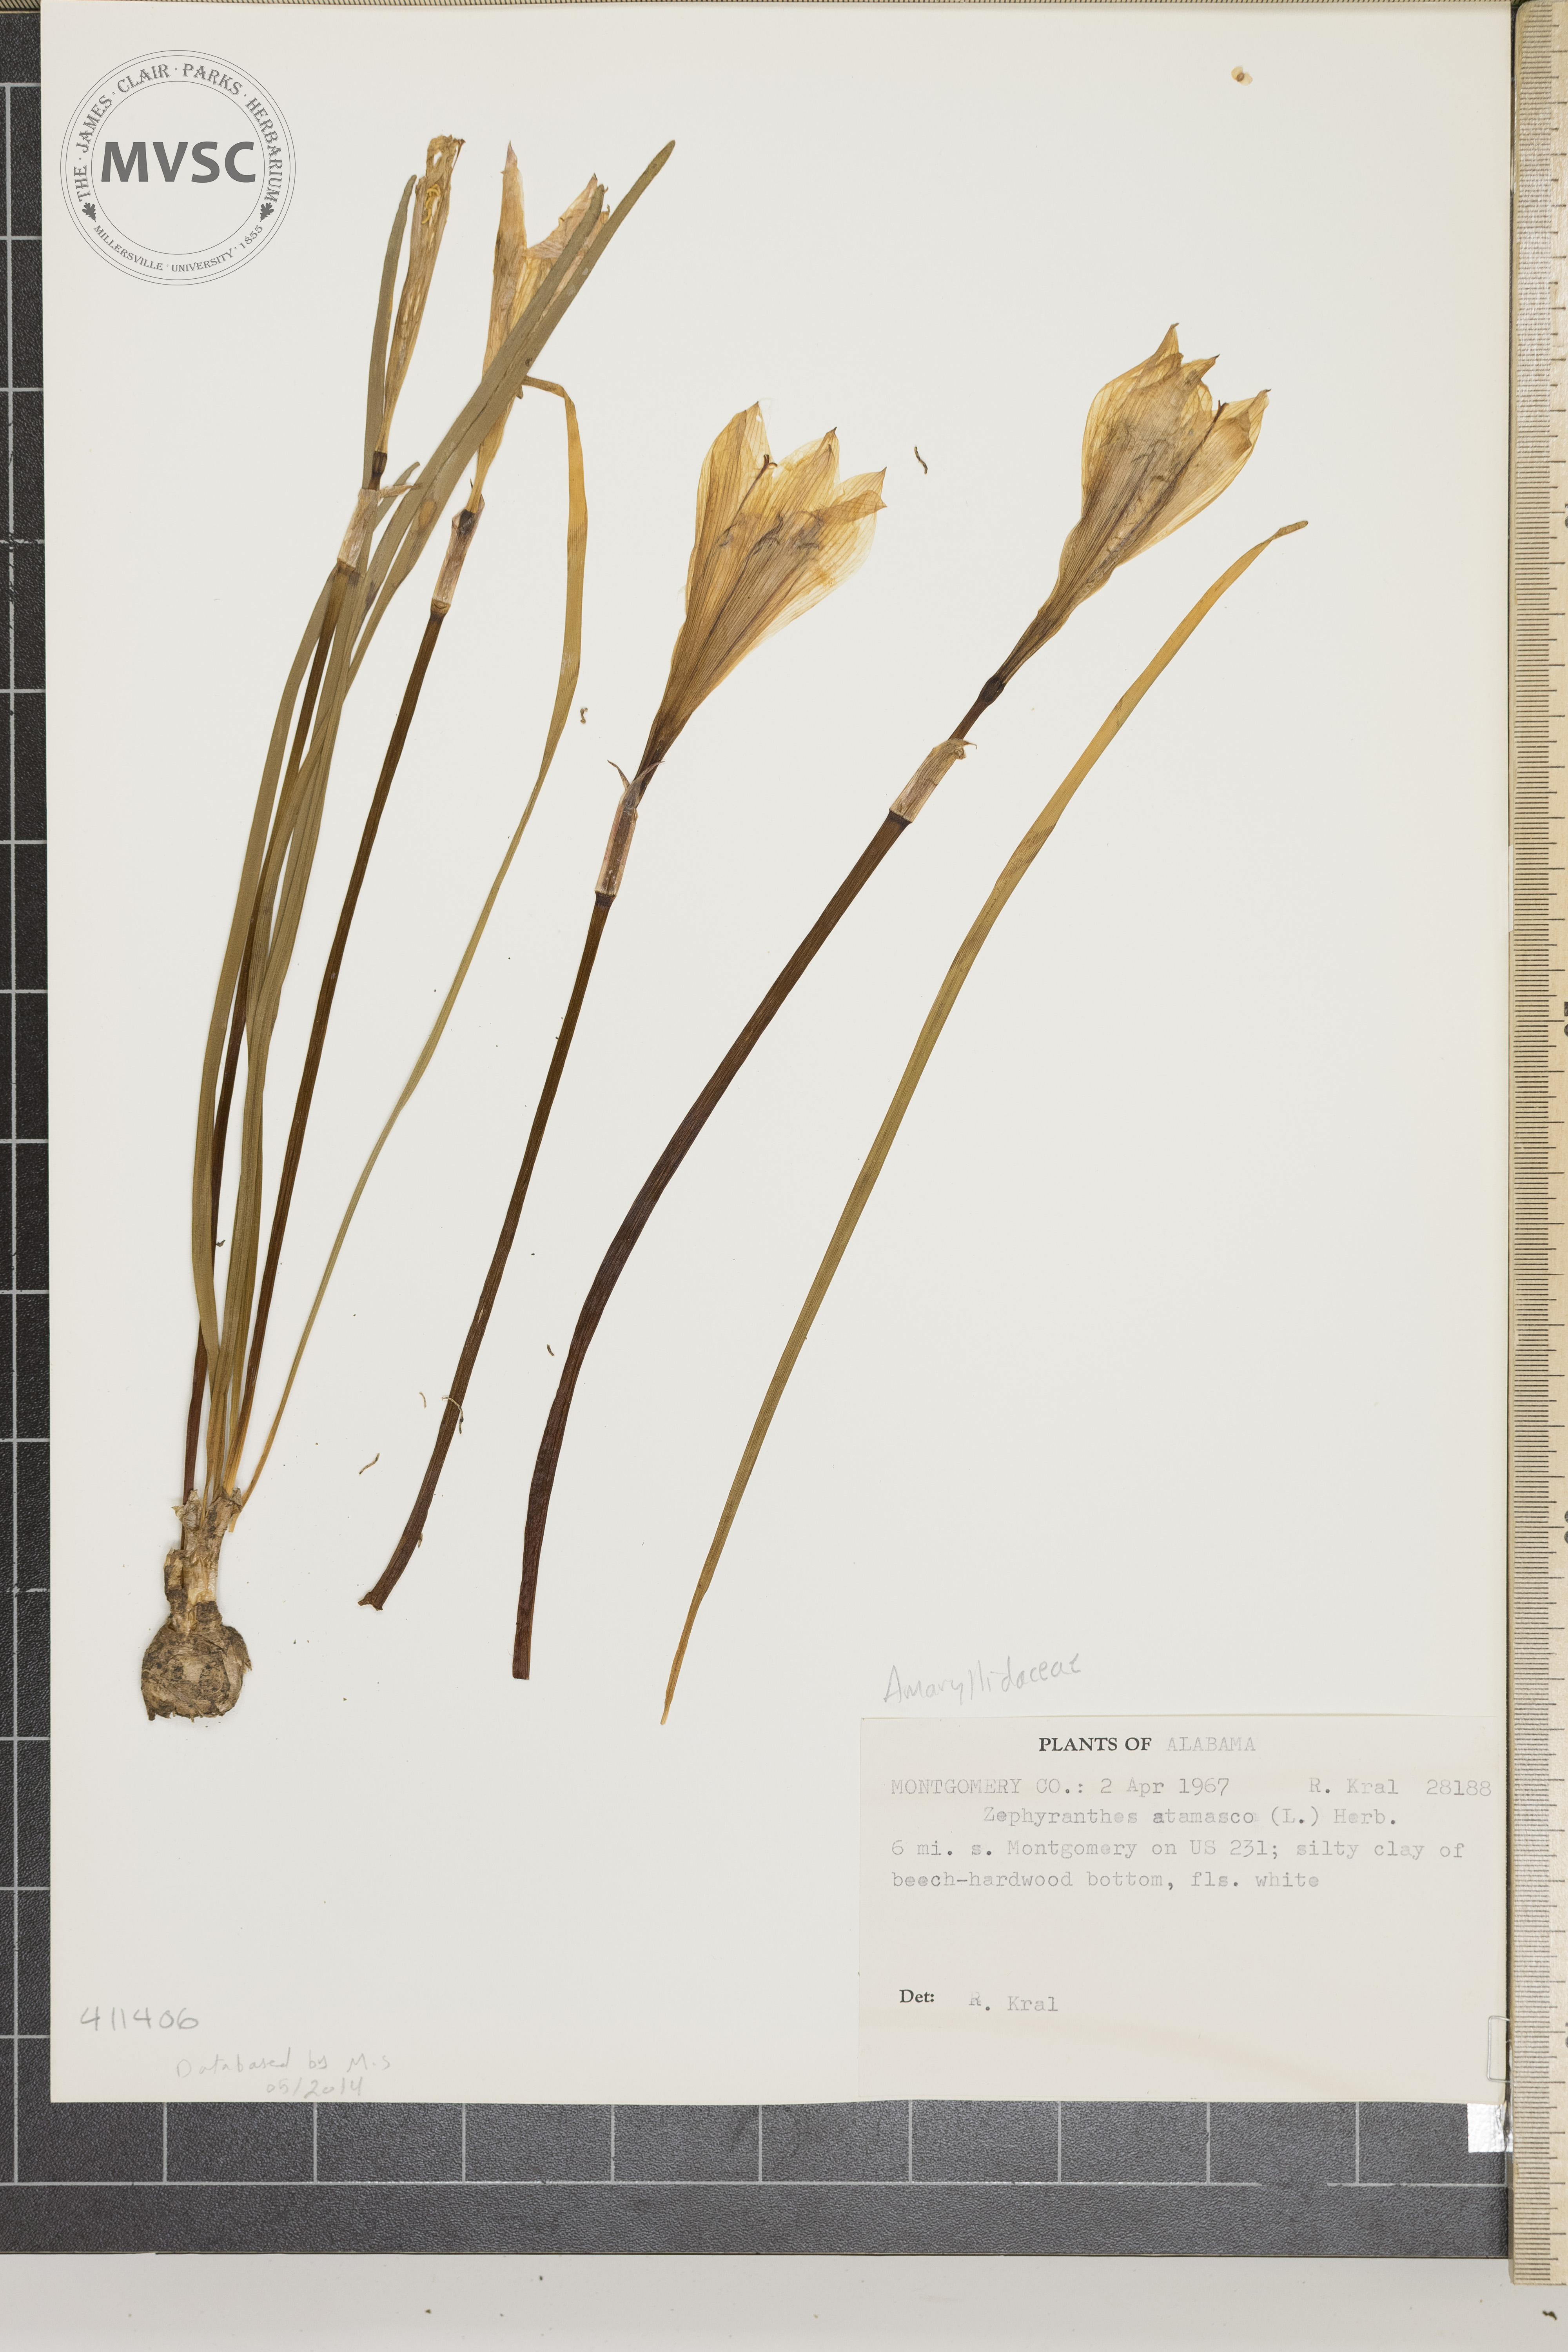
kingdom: Plantae
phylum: Tracheophyta
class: Liliopsida
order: Asparagales
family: Amaryllidaceae
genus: Zephyranthes
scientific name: Zephyranthes atamasco
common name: Atamasco lily
